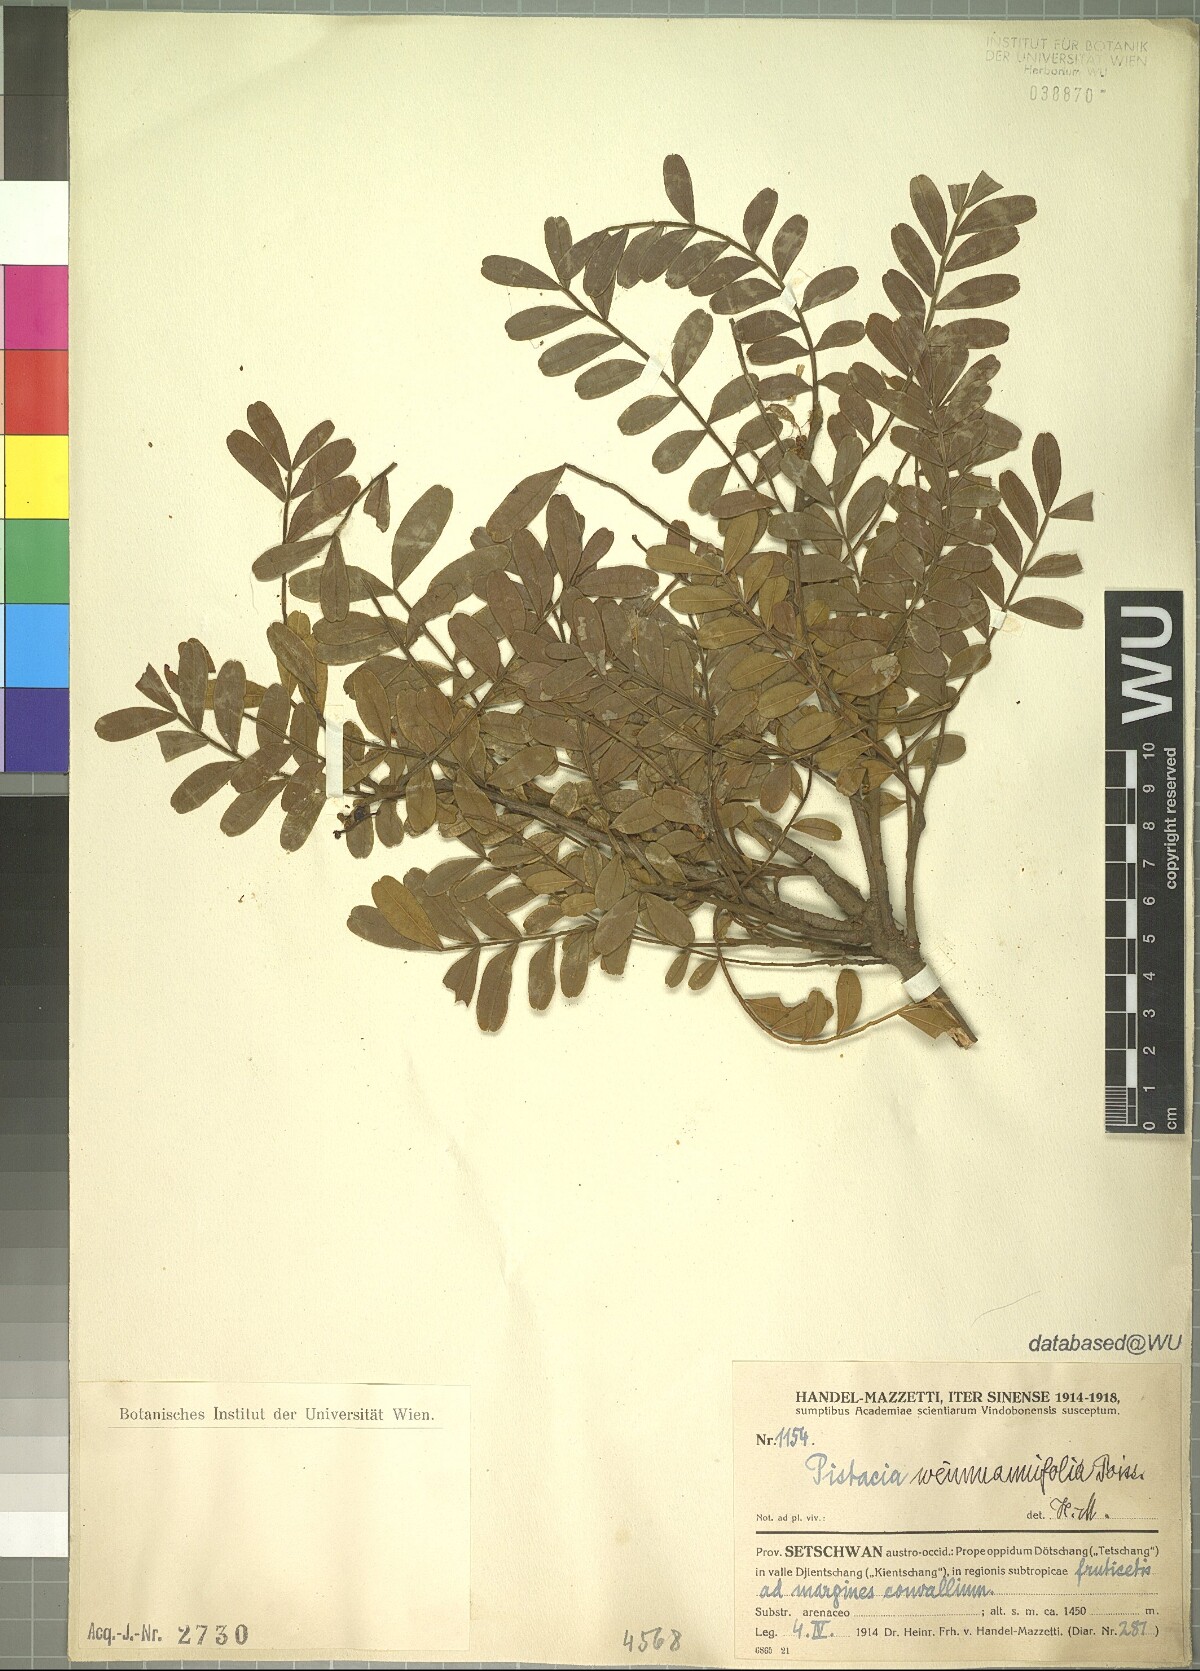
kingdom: Plantae
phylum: Tracheophyta
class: Magnoliopsida
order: Sapindales
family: Anacardiaceae
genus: Pistacia
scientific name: Pistacia weinmannifolia
